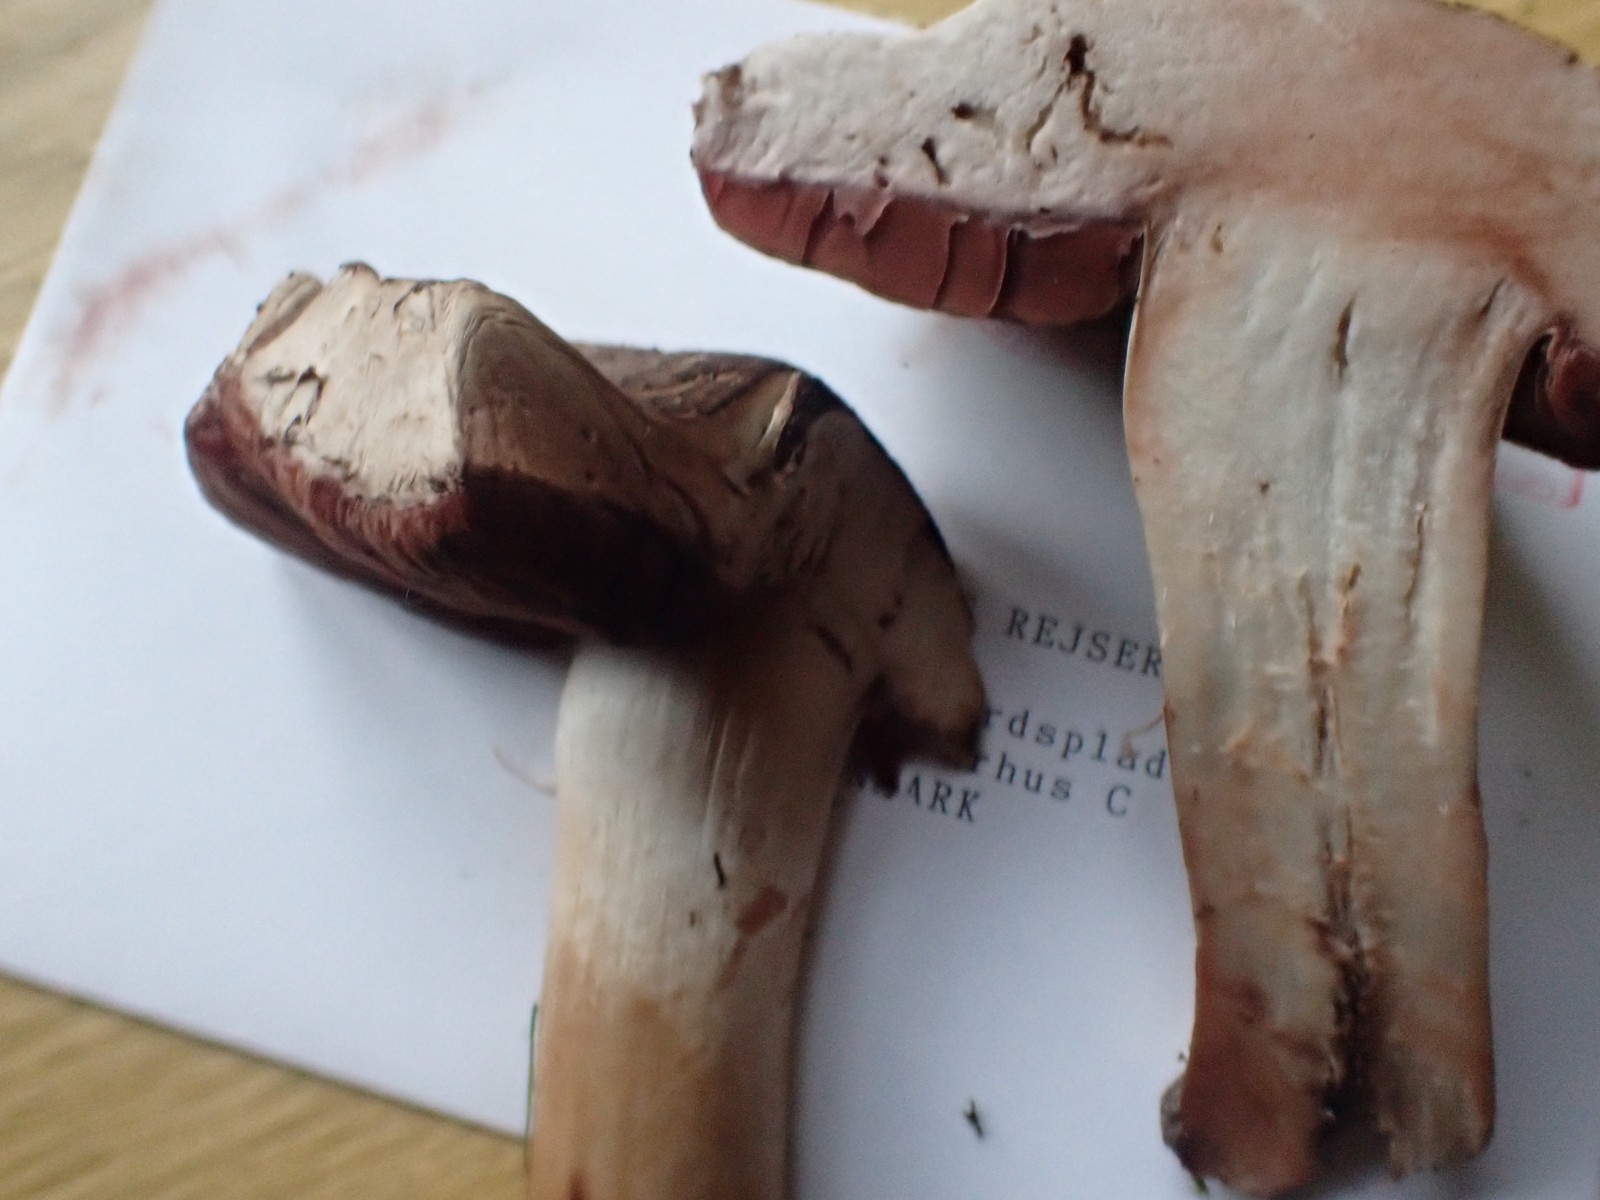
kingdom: Fungi
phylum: Basidiomycota
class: Agaricomycetes
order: Agaricales
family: Agaricaceae
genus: Agaricus
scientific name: Agaricus
